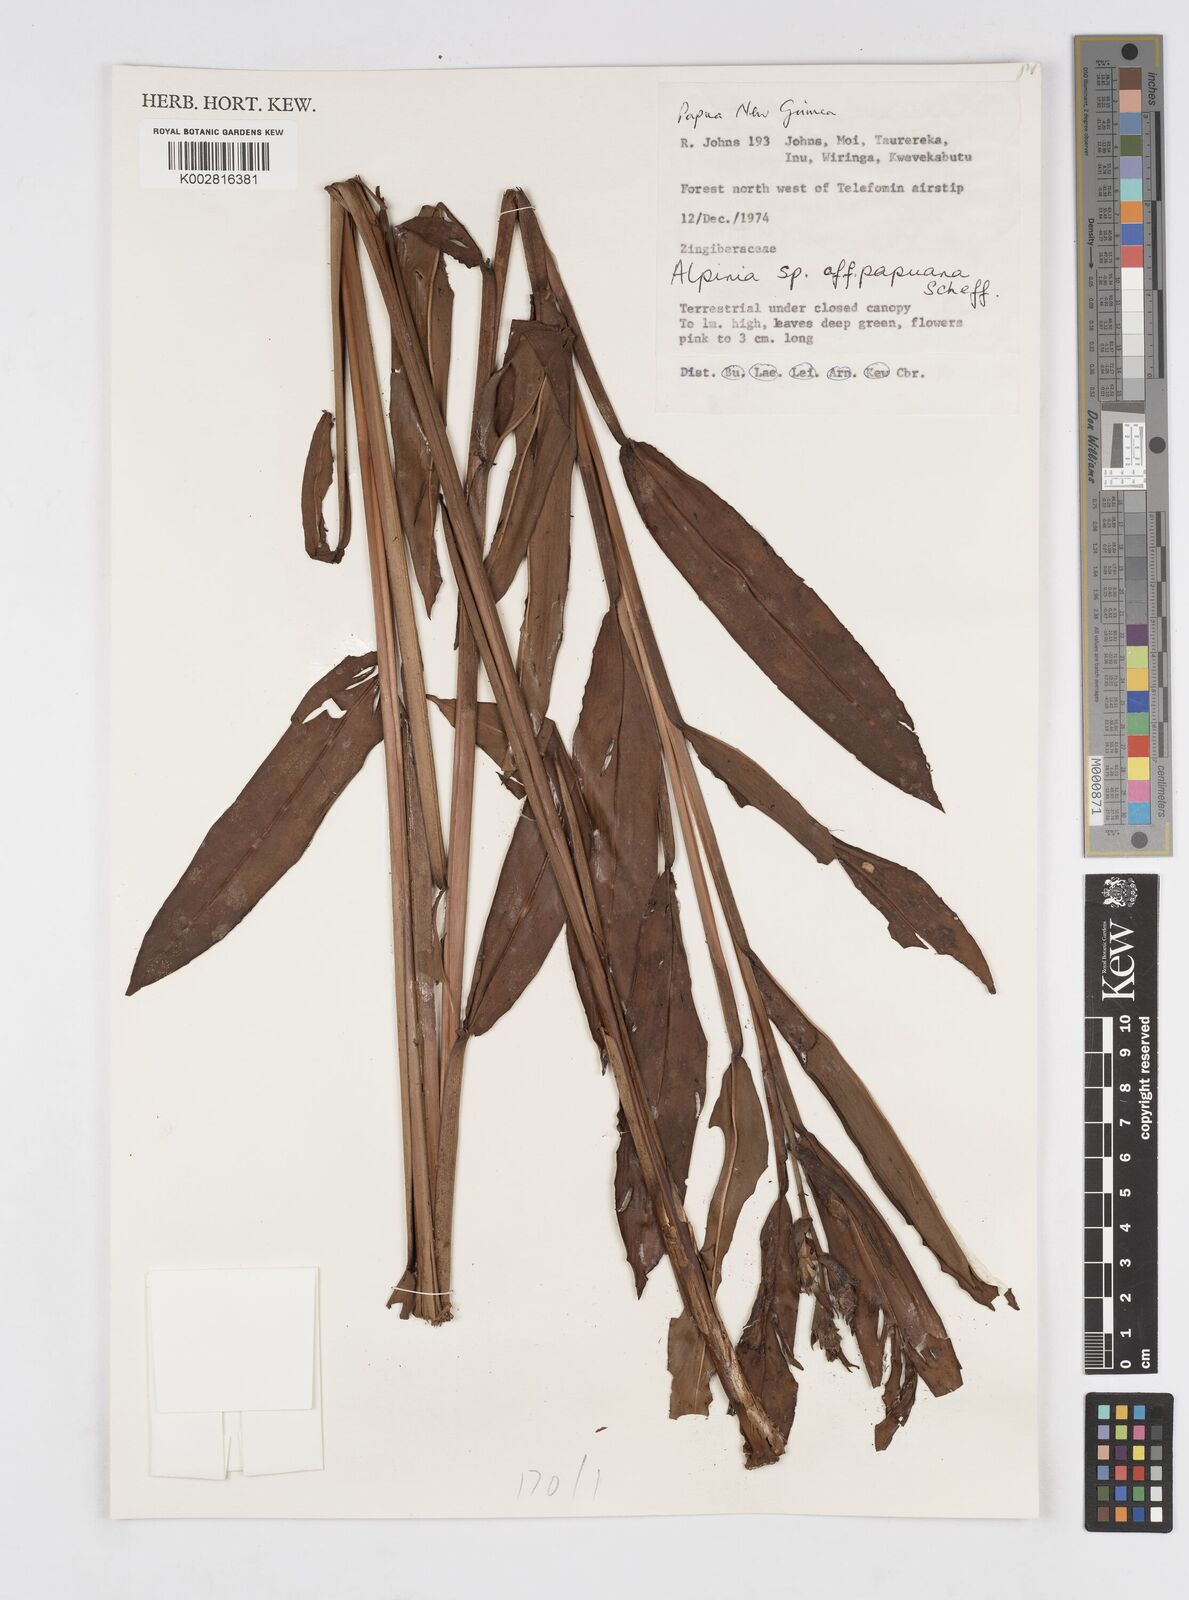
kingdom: Plantae
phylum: Tracheophyta
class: Liliopsida
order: Zingiberales
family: Zingiberaceae
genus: Alpinia
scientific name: Alpinia papuana
